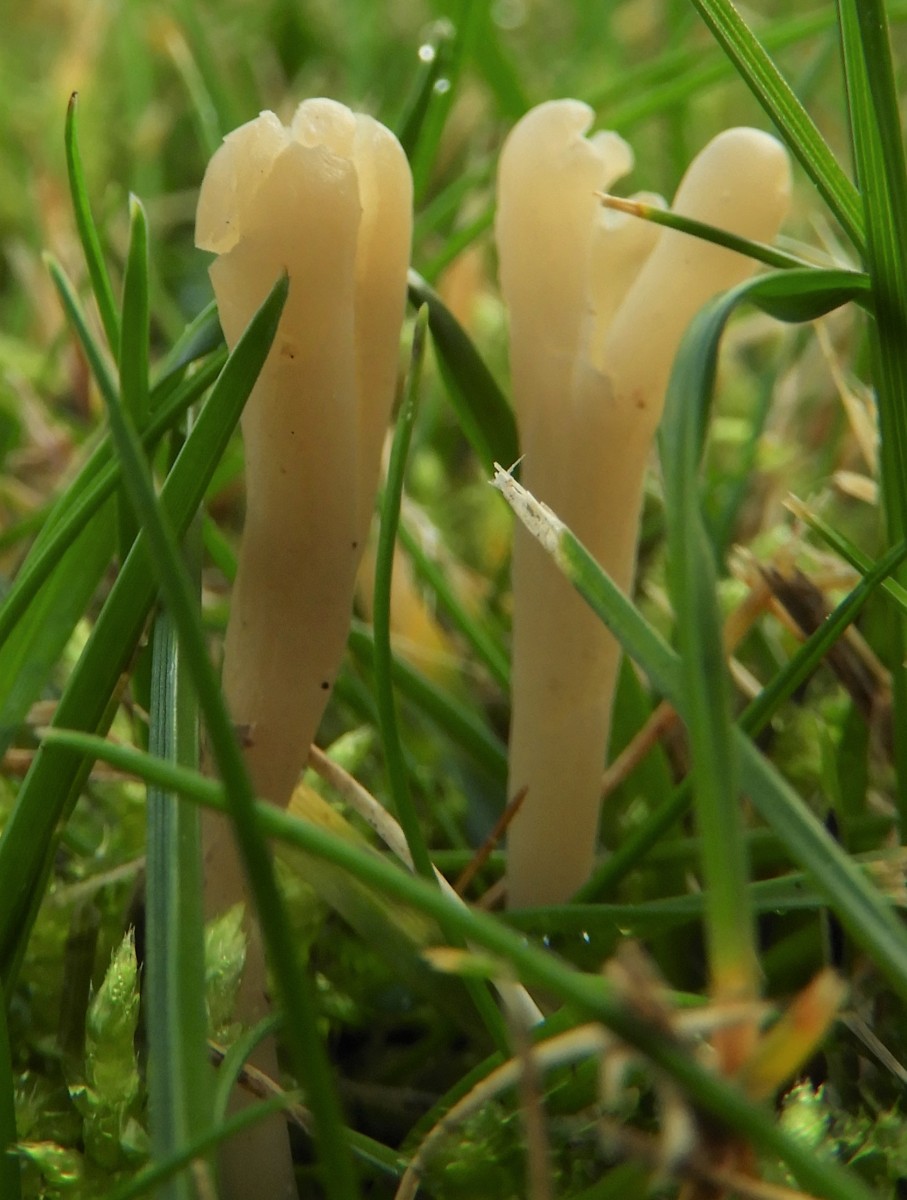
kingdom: Fungi
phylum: Basidiomycota
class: Agaricomycetes
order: Agaricales
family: Clavariaceae
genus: Clavaria
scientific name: Clavaria tenuipes
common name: isabellafarvet køllesvamp
